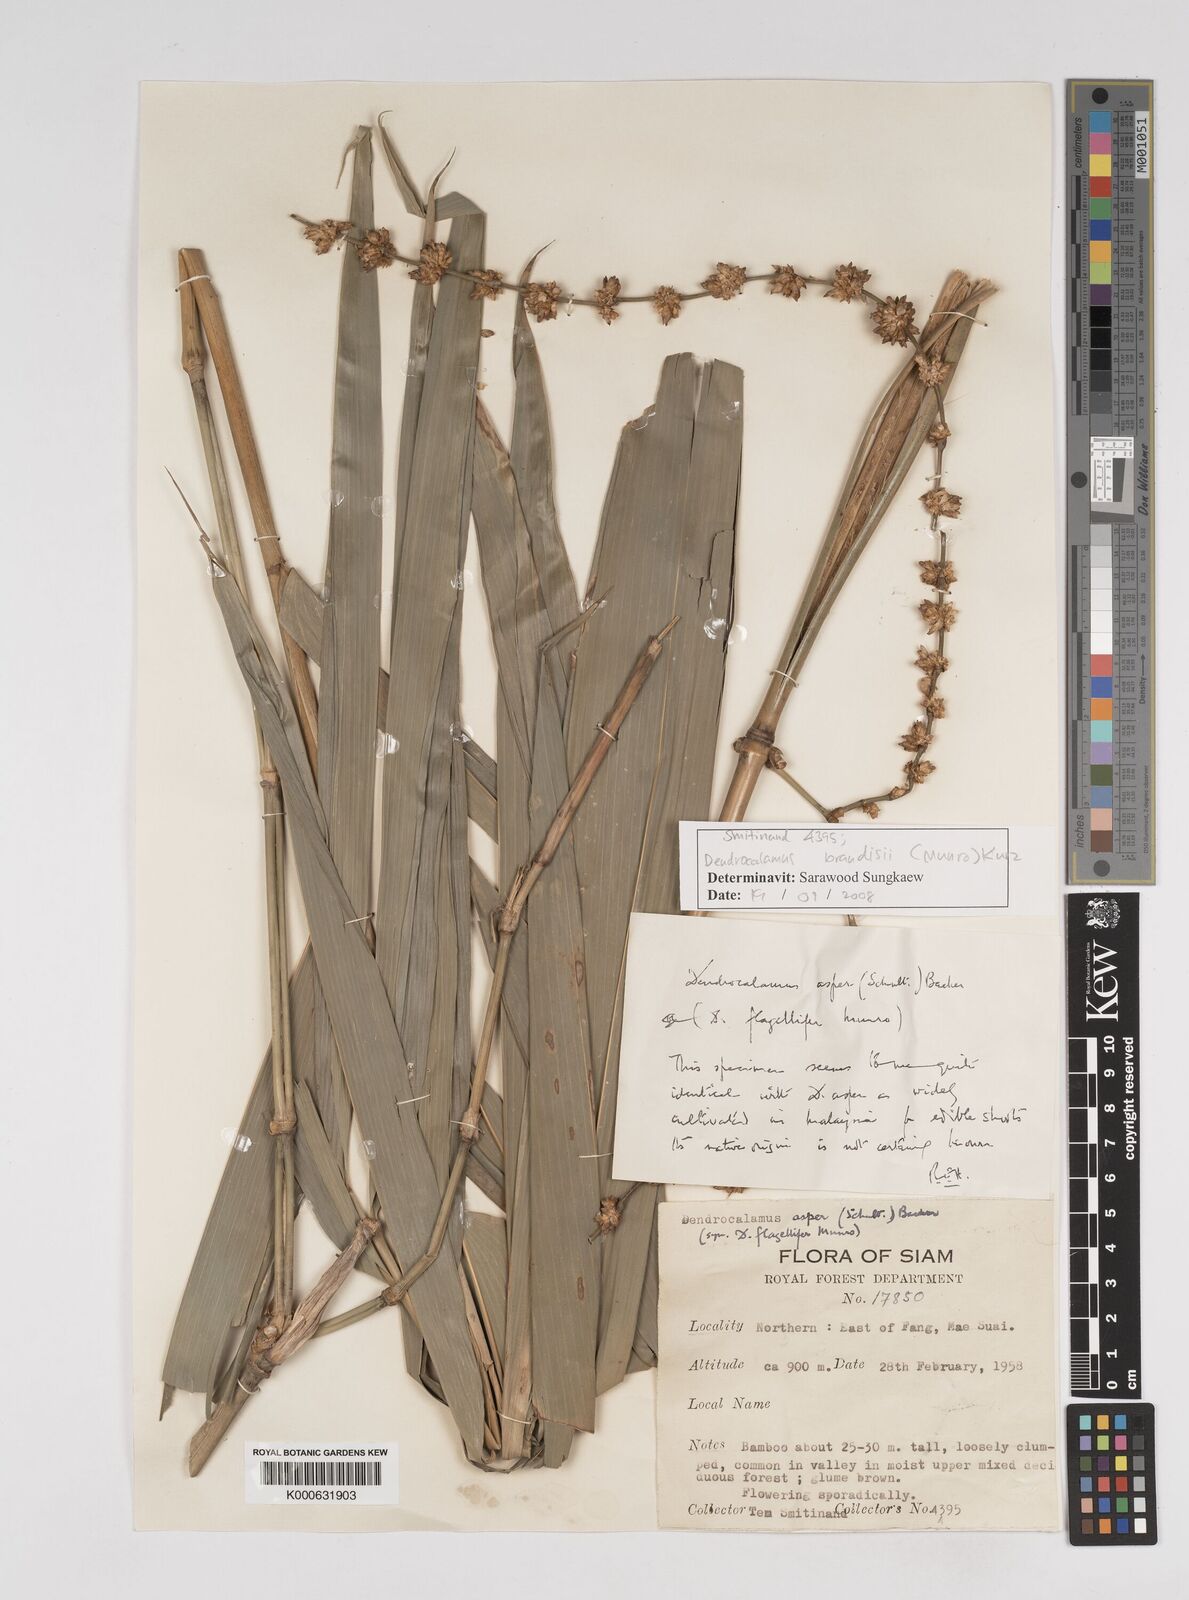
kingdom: Plantae
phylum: Tracheophyta
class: Liliopsida
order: Poales
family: Poaceae
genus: Dendrocalamus
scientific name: Dendrocalamus brandisii
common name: Velvetleaf bamboo
